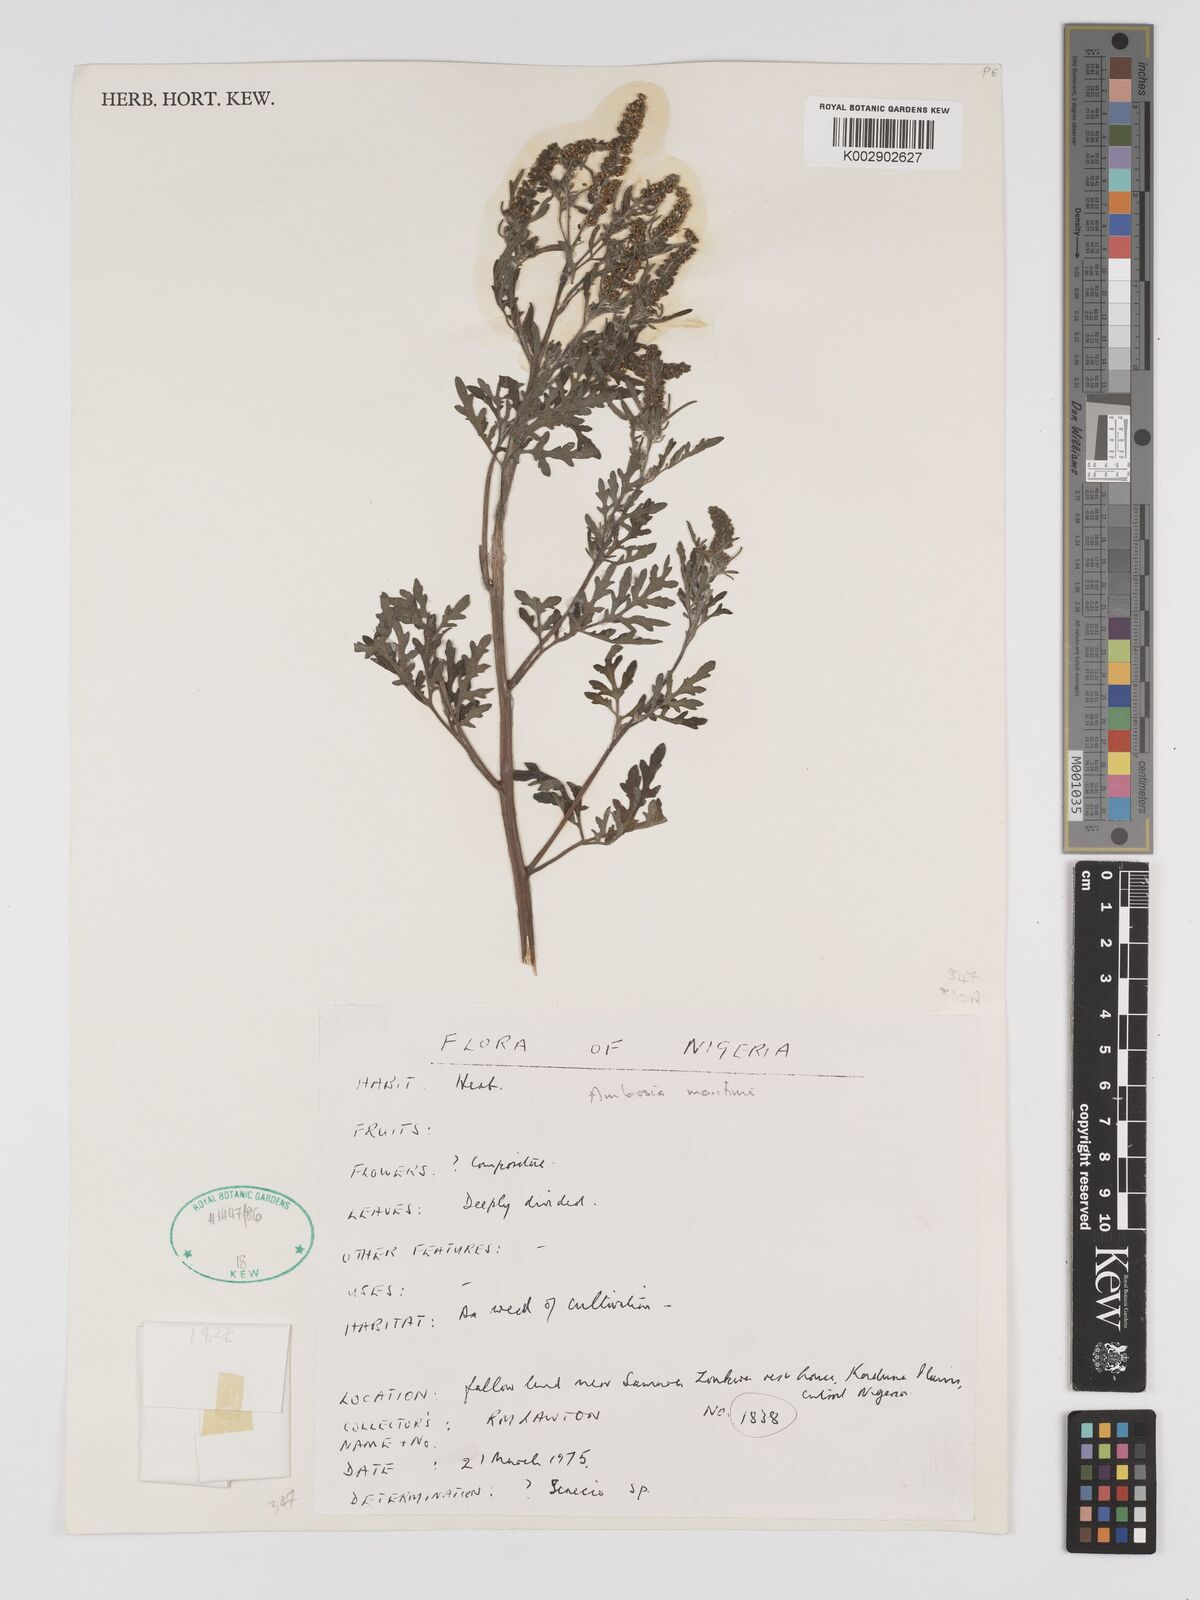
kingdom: Plantae
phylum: Tracheophyta
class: Magnoliopsida
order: Asterales
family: Asteraceae
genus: Ambrosia
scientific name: Ambrosia maritima
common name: Sea ambrosia
